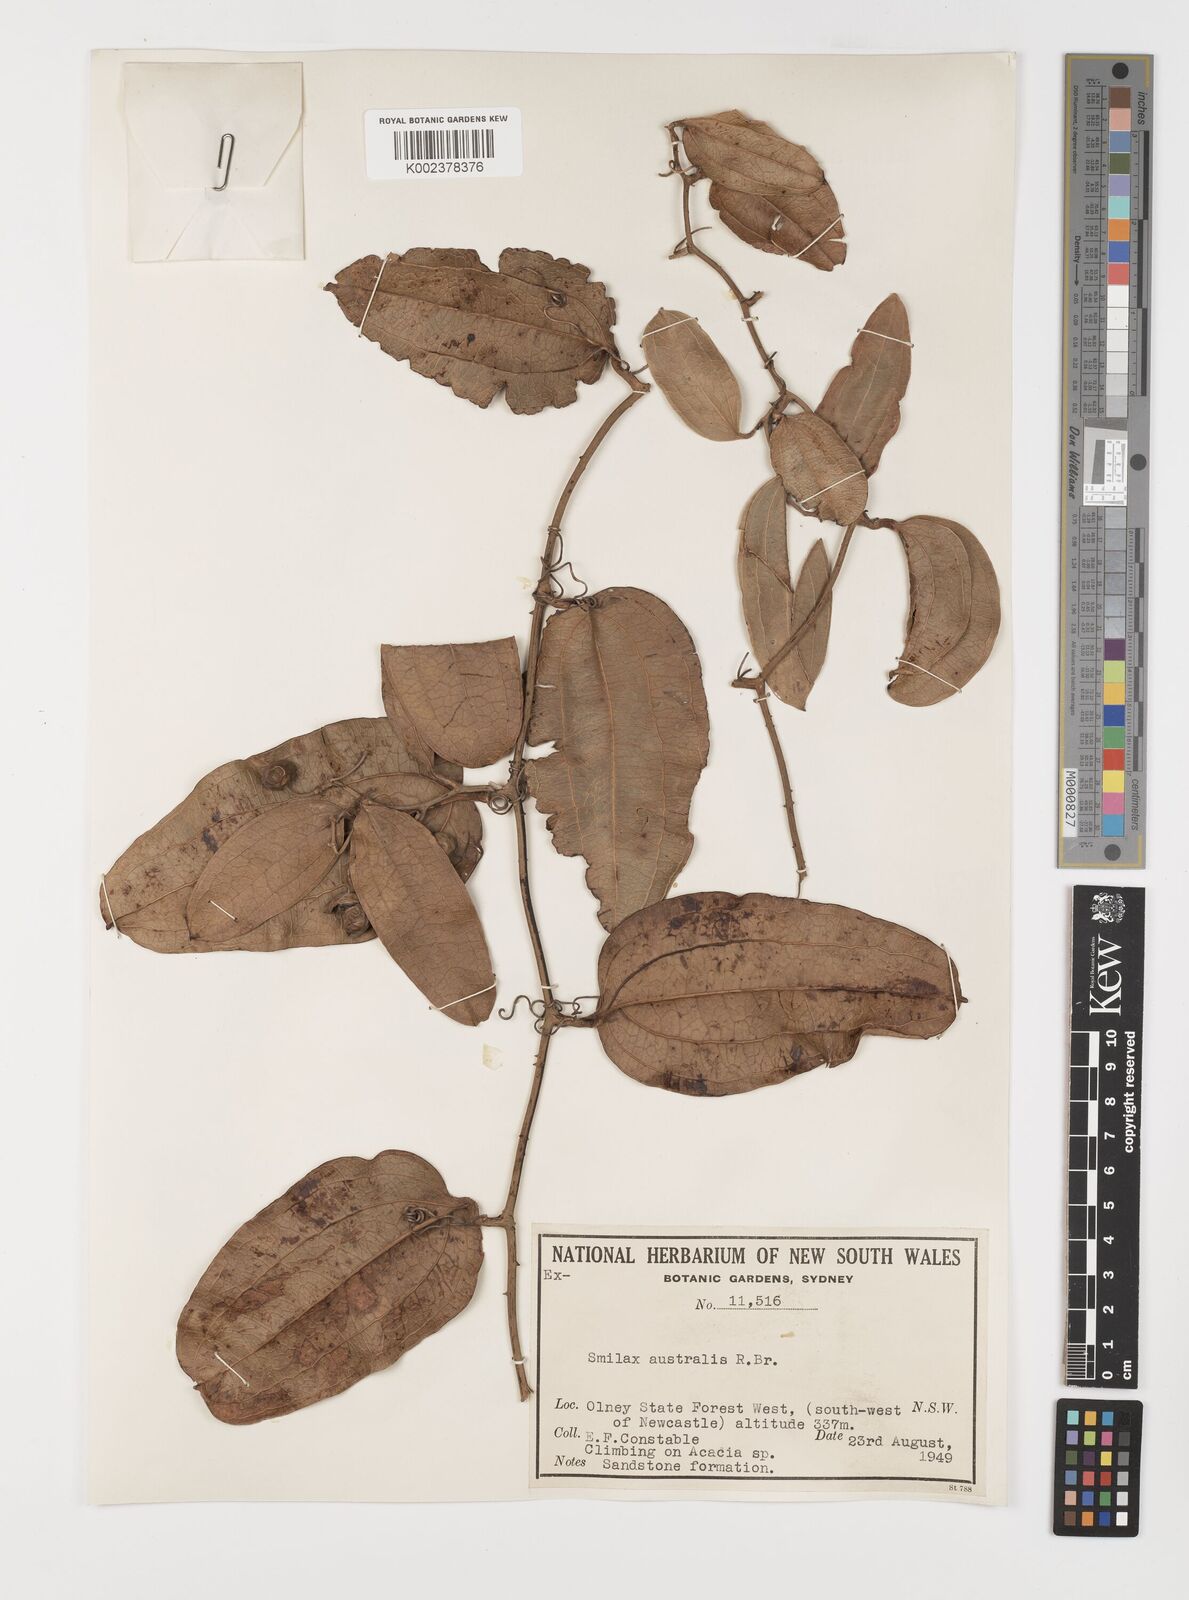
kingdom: Plantae
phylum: Tracheophyta
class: Liliopsida
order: Liliales
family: Smilacaceae
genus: Smilax
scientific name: Smilax australis
